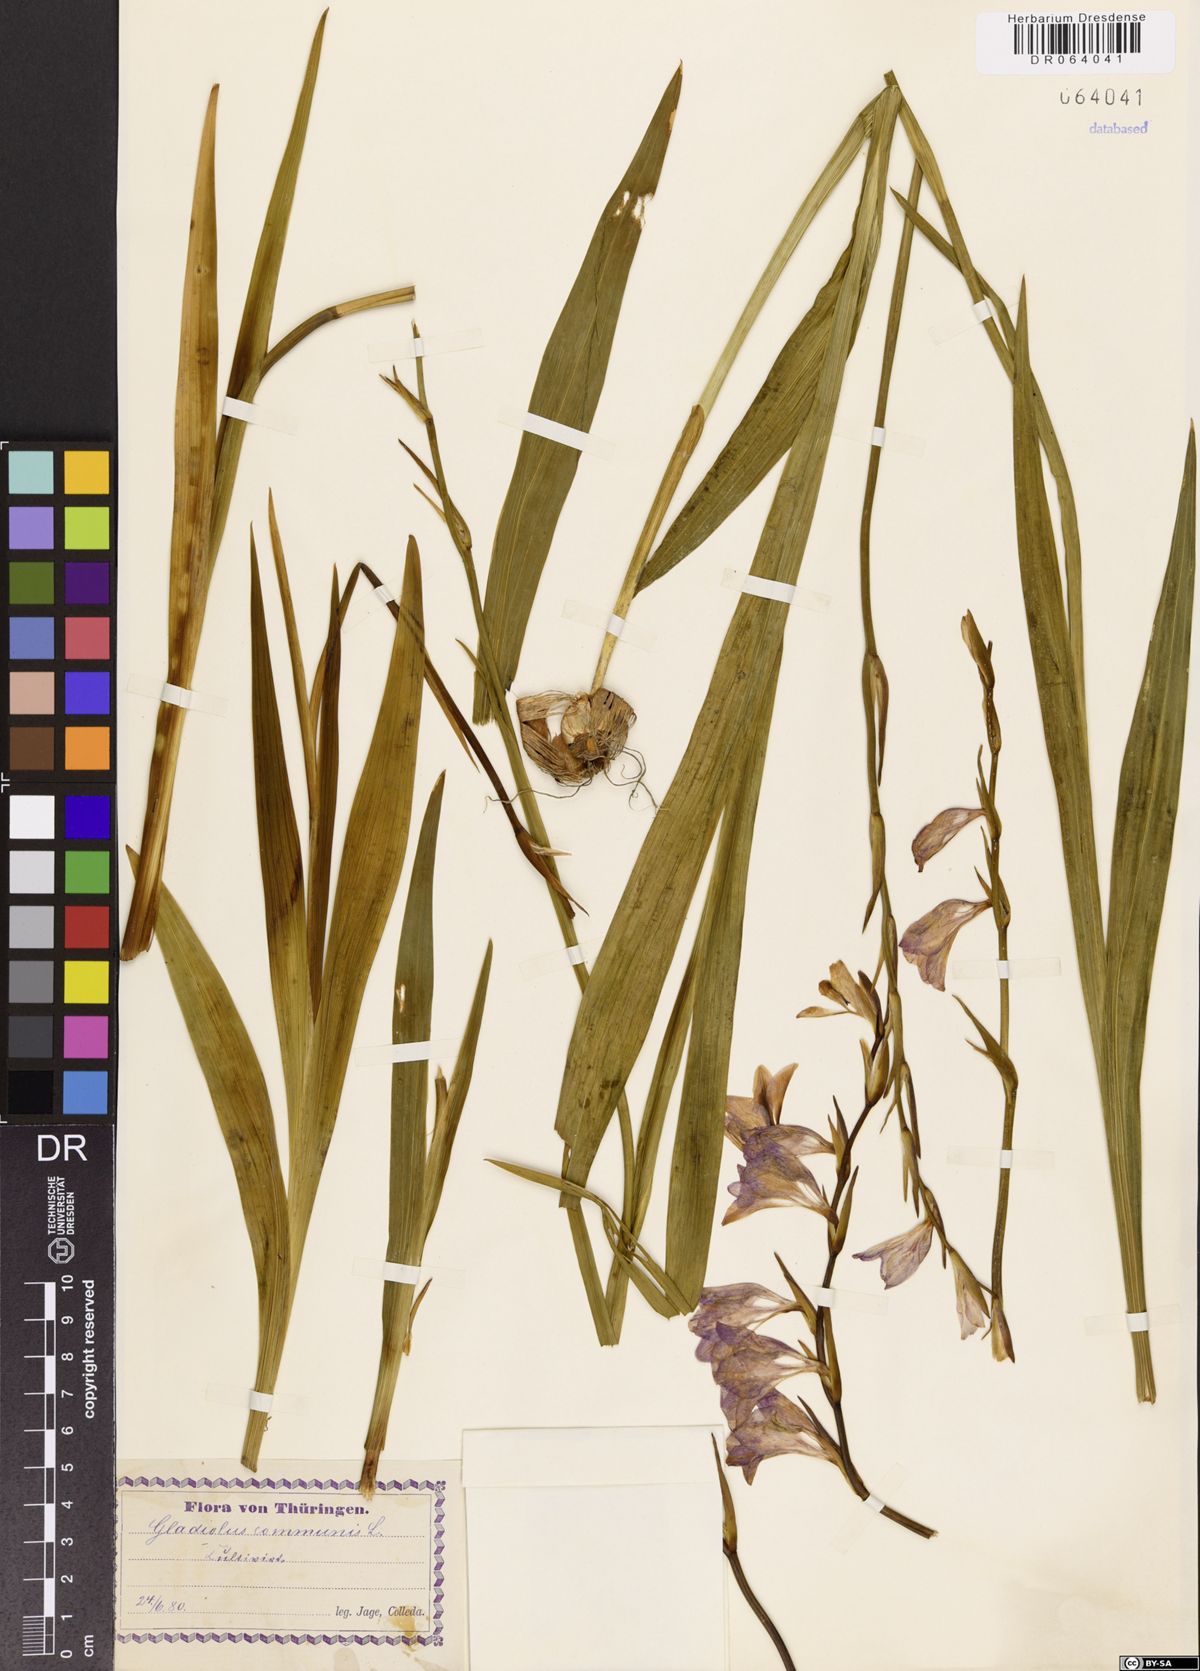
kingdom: Plantae
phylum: Tracheophyta
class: Liliopsida
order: Asparagales
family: Iridaceae
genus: Gladiolus
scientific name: Gladiolus communis
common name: Eastern gladiolus
